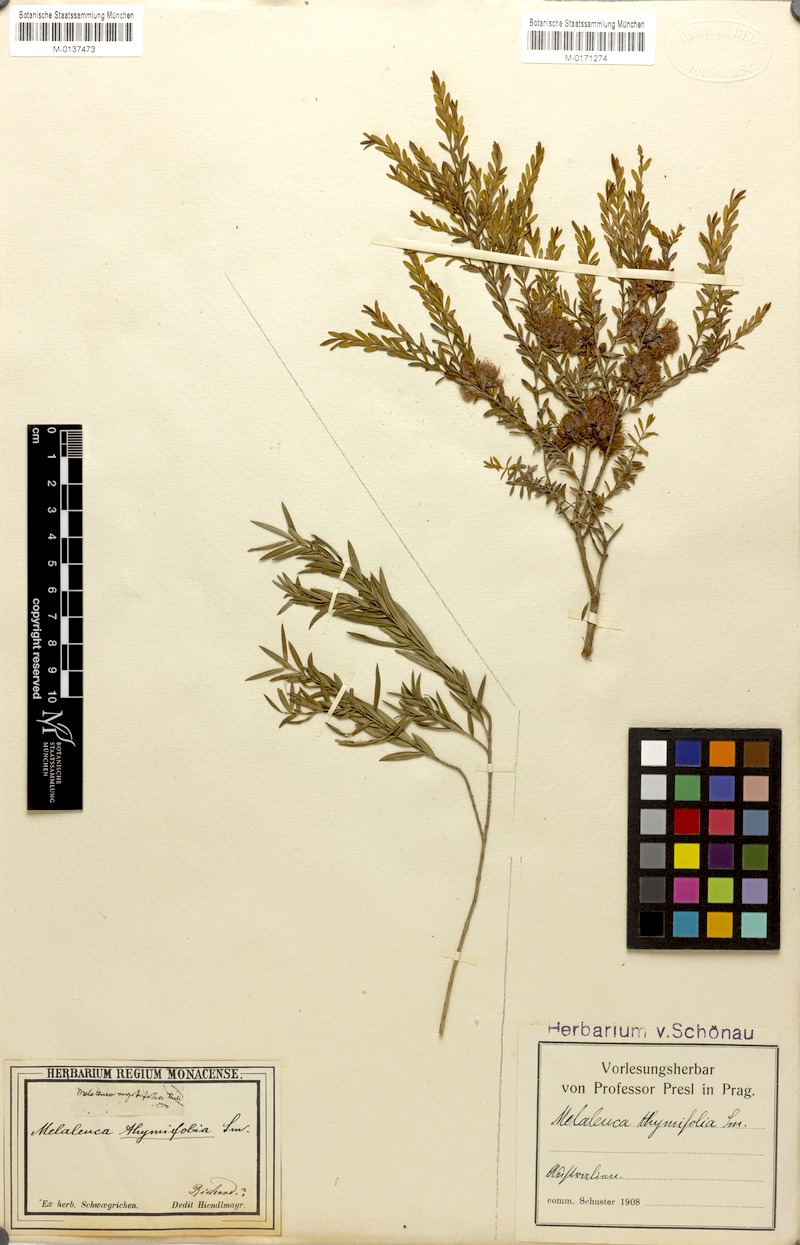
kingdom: Plantae
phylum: Tracheophyta
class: Magnoliopsida
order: Myrtales
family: Myrtaceae
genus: Melaleuca
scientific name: Melaleuca thymifolia
